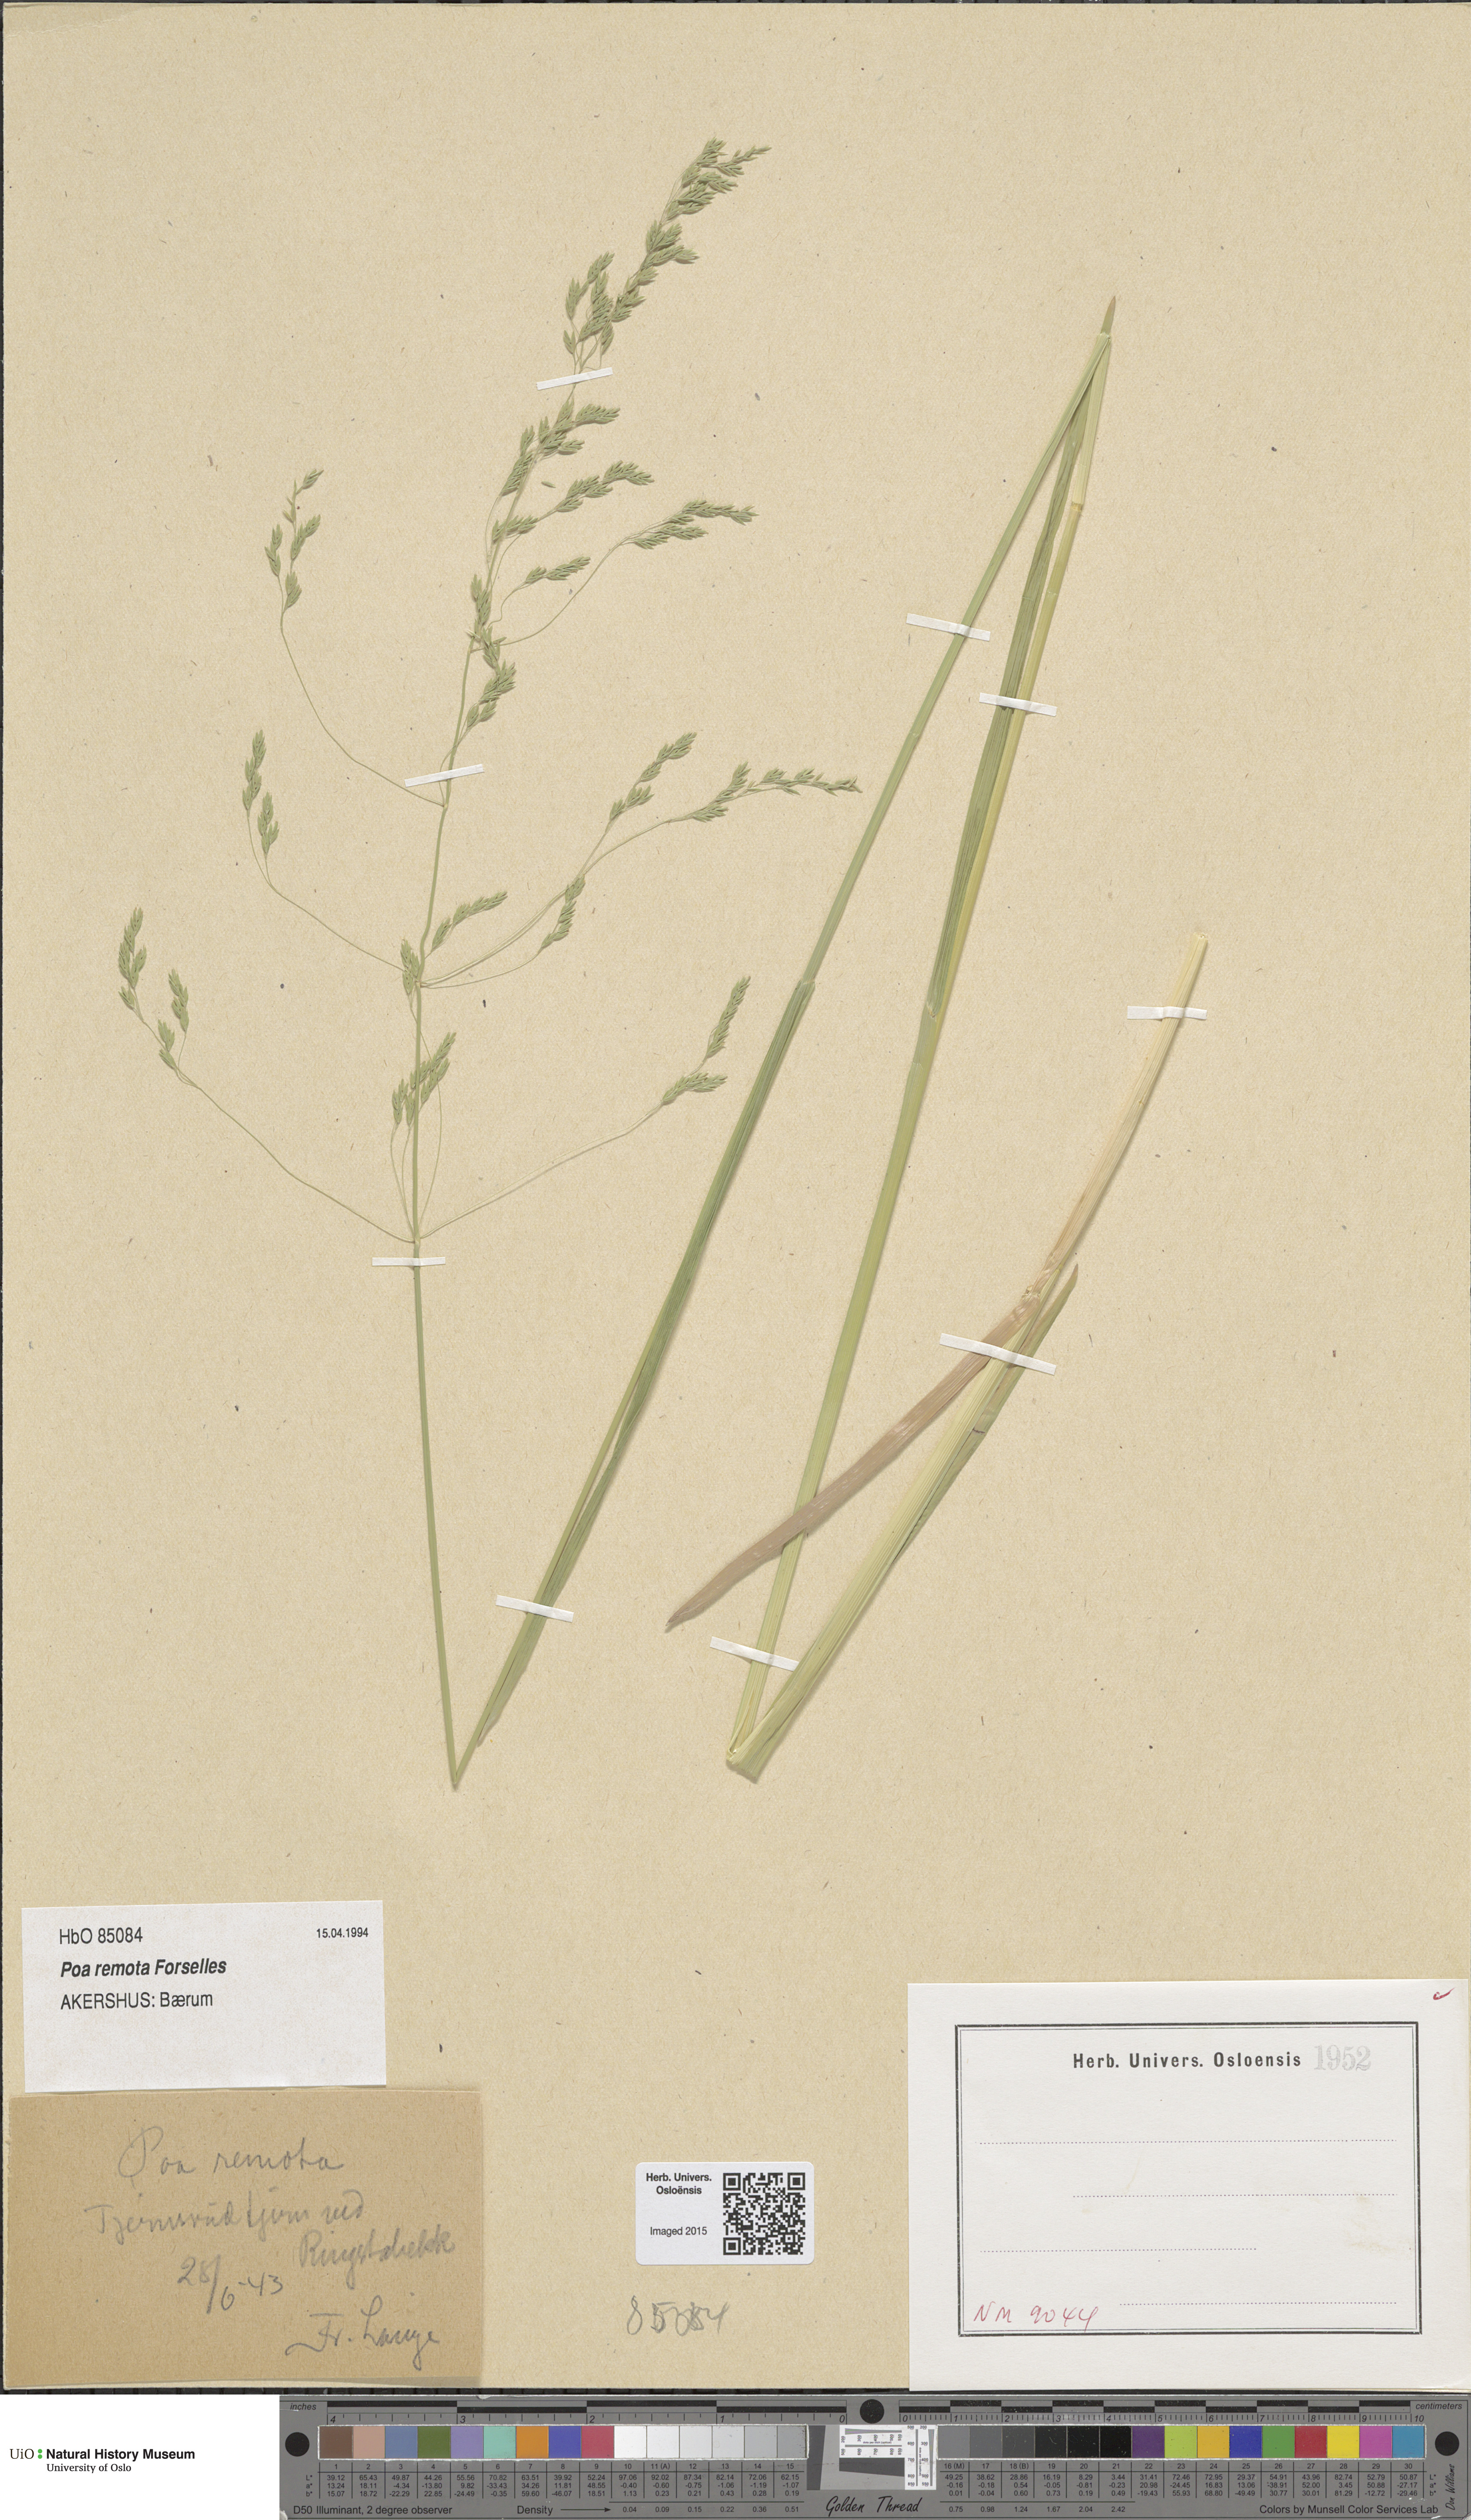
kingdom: Plantae
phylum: Tracheophyta
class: Liliopsida
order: Poales
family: Poaceae
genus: Poa
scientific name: Poa remota
